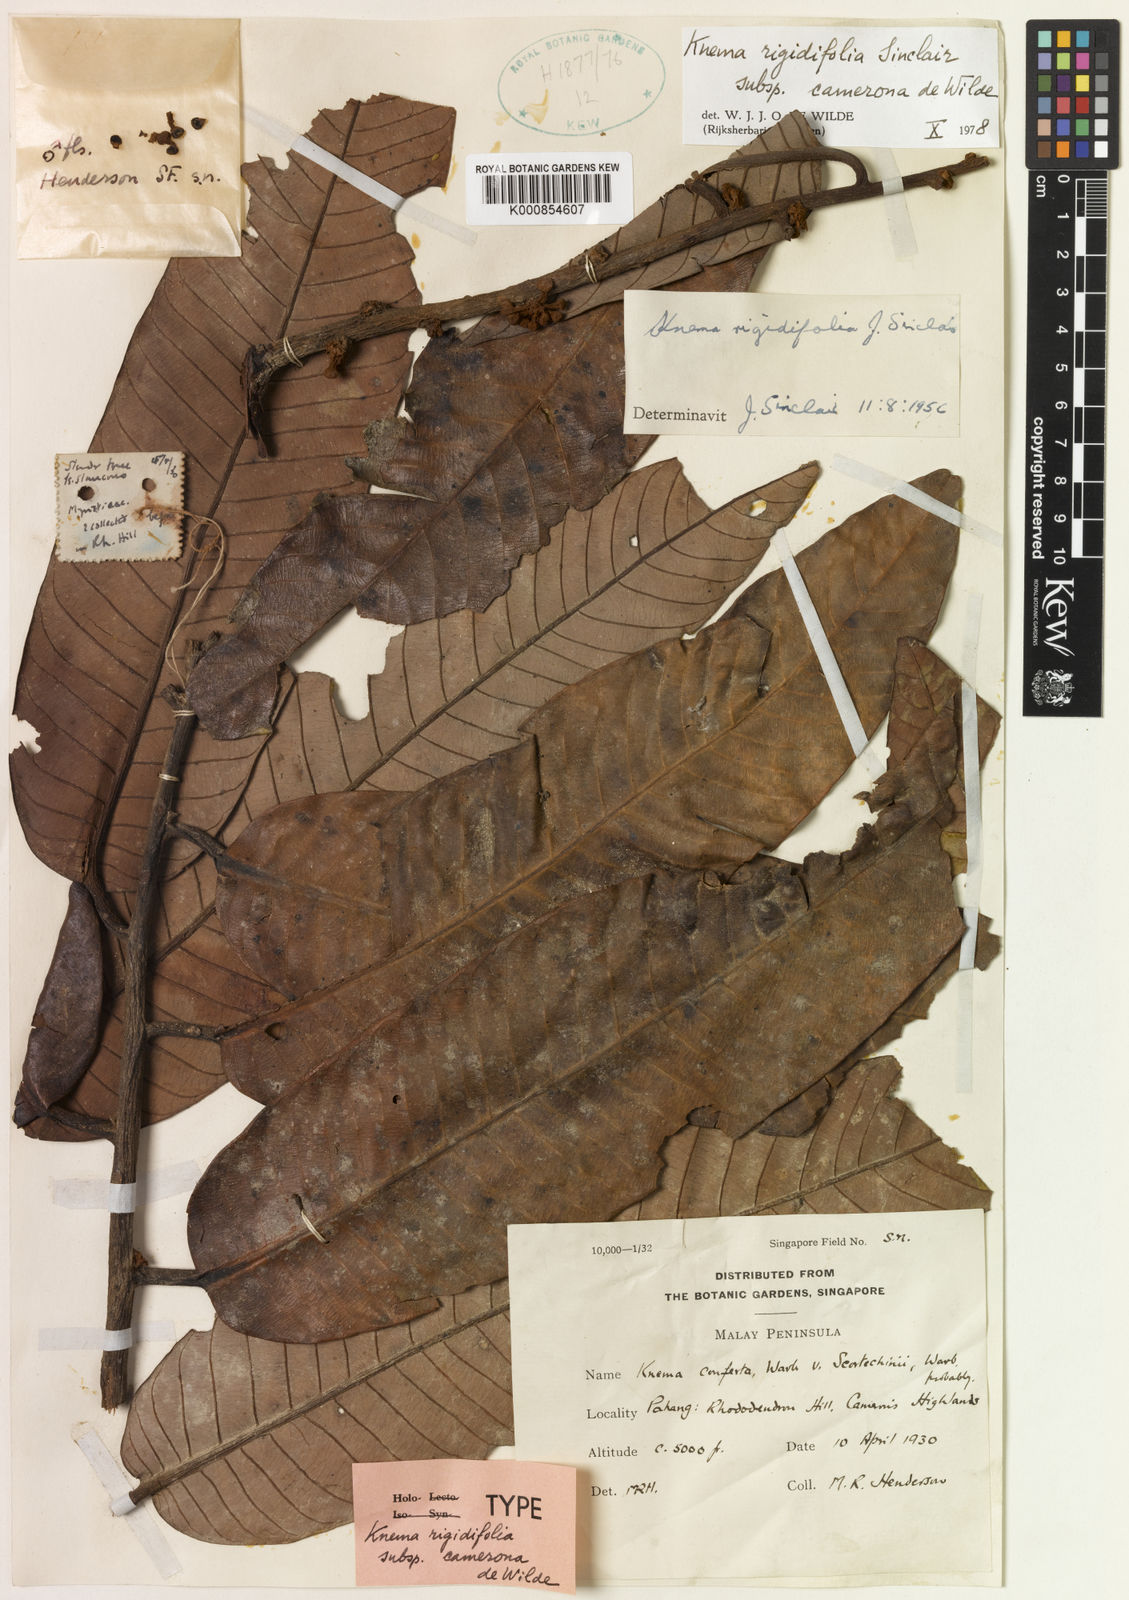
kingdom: Plantae
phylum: Tracheophyta
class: Magnoliopsida
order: Magnoliales
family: Myristicaceae
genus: Knema
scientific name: Knema rigidifolia
